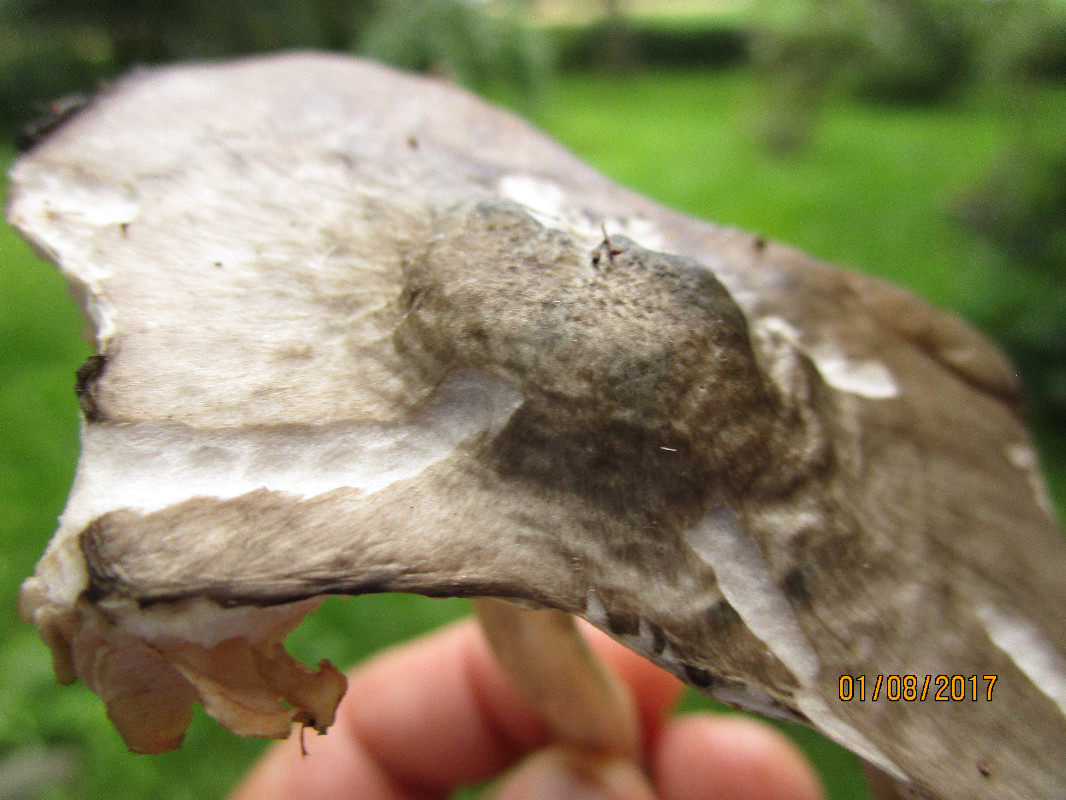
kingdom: Fungi
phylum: Basidiomycota
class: Agaricomycetes
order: Agaricales
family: Pluteaceae
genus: Pluteus
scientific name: Pluteus salicinus
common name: stiv skærmhat
